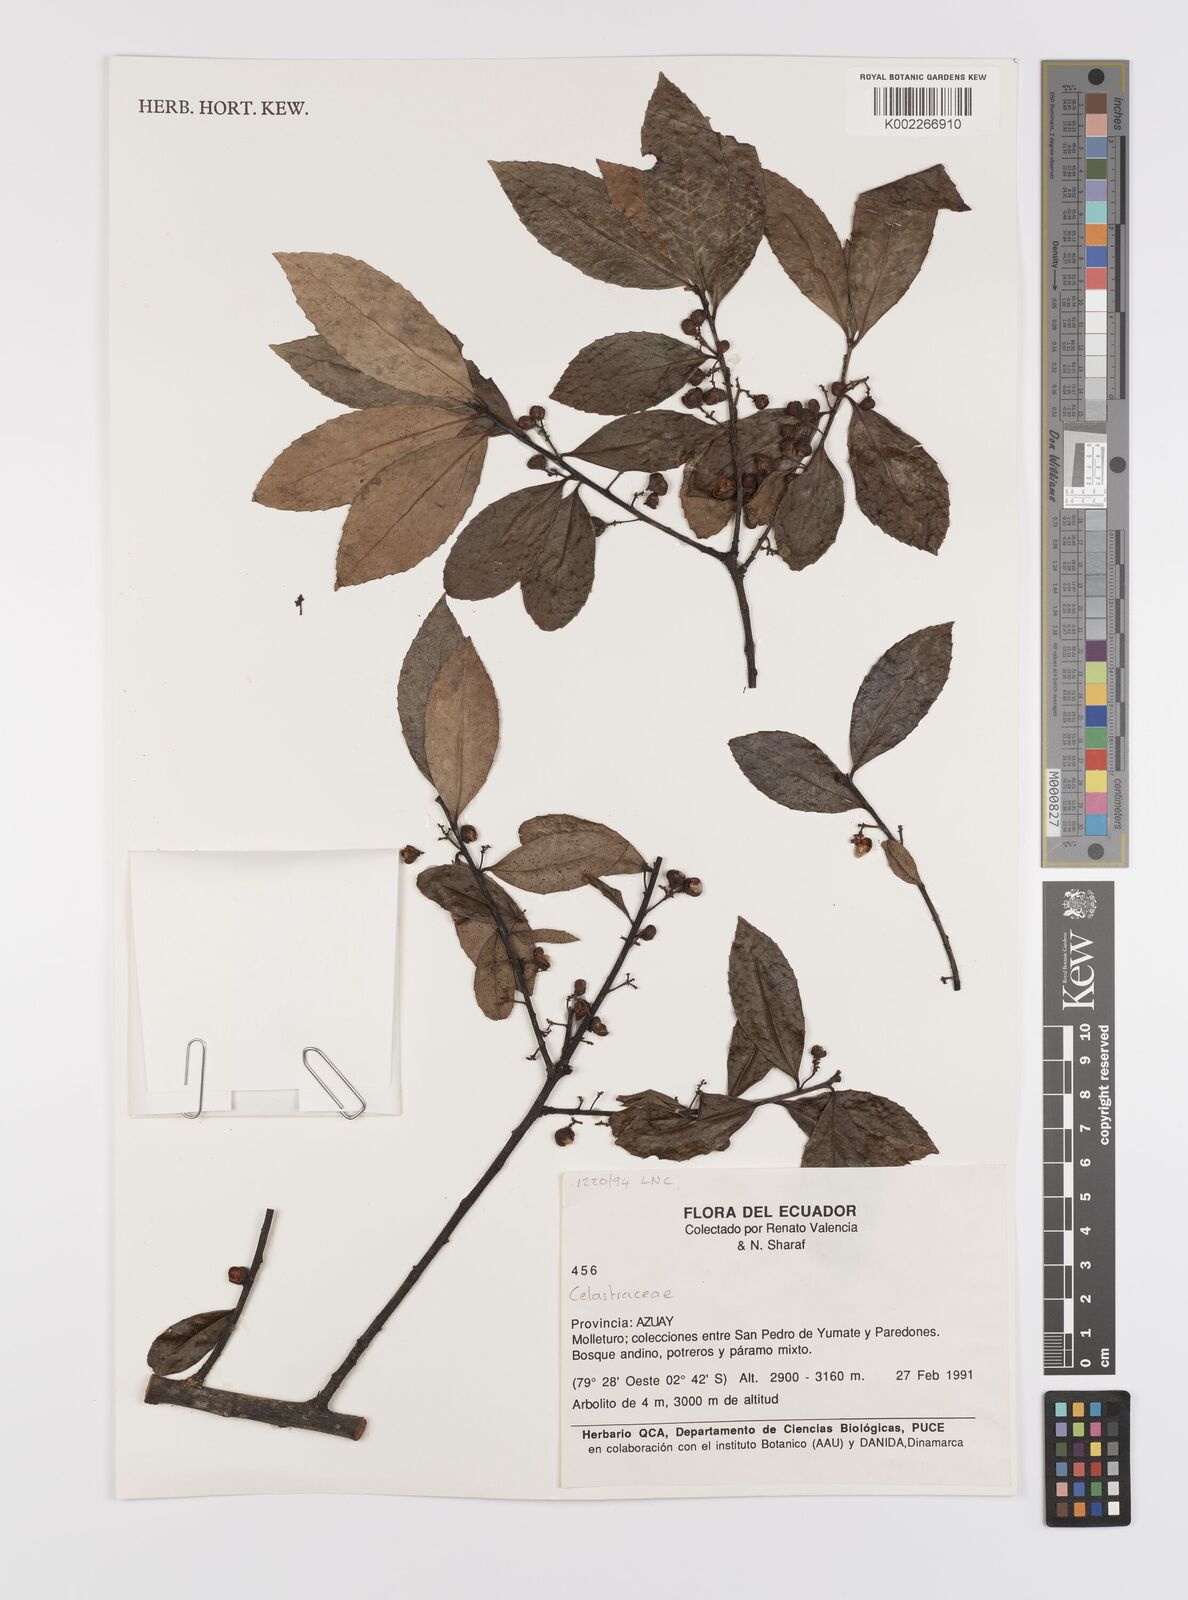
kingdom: Plantae
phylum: Tracheophyta
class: Magnoliopsida
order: Celastrales
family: Celastraceae
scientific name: Celastraceae
